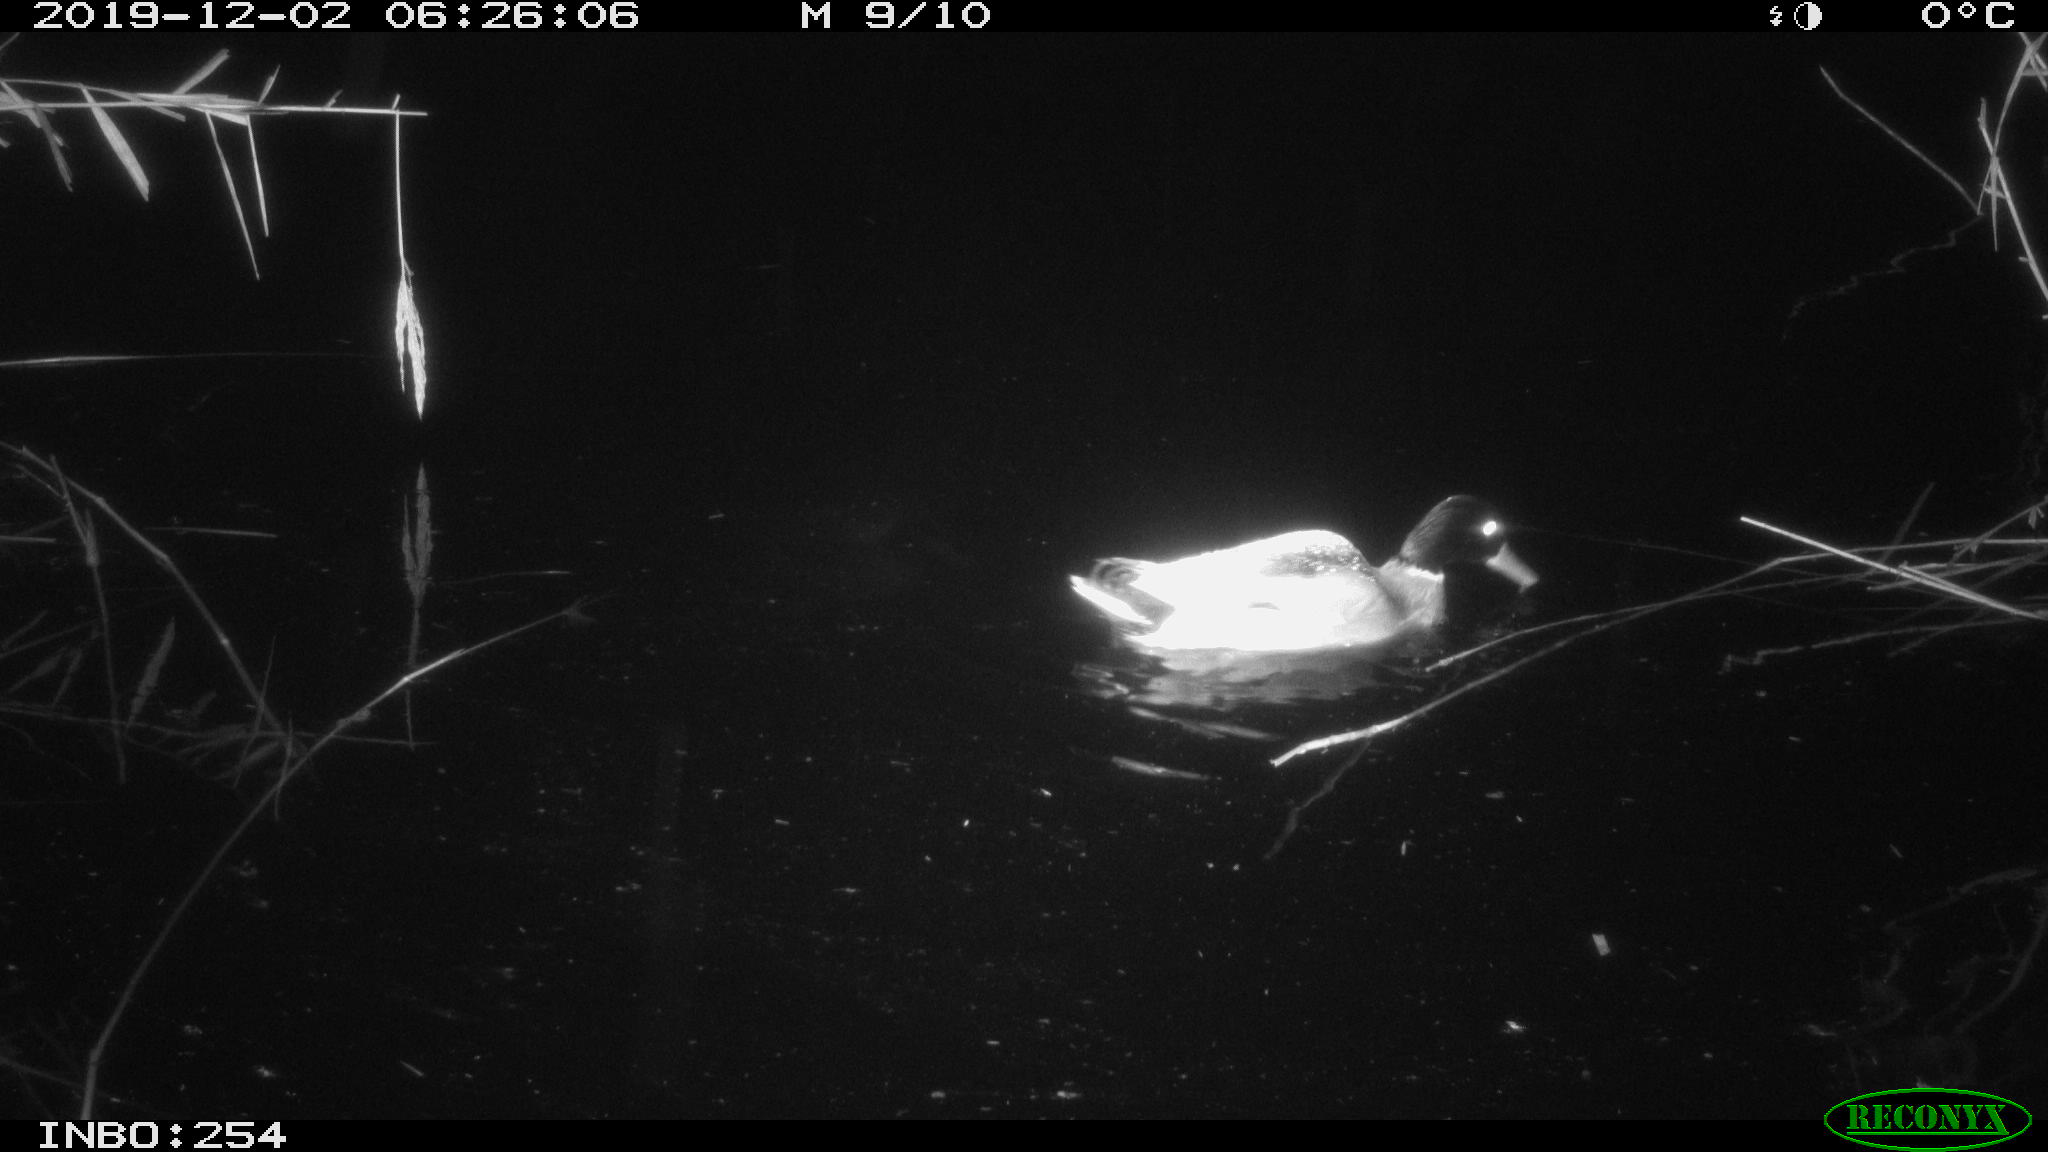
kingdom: Animalia
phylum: Chordata
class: Aves
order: Anseriformes
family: Anatidae
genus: Anas
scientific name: Anas platyrhynchos
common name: Mallard
